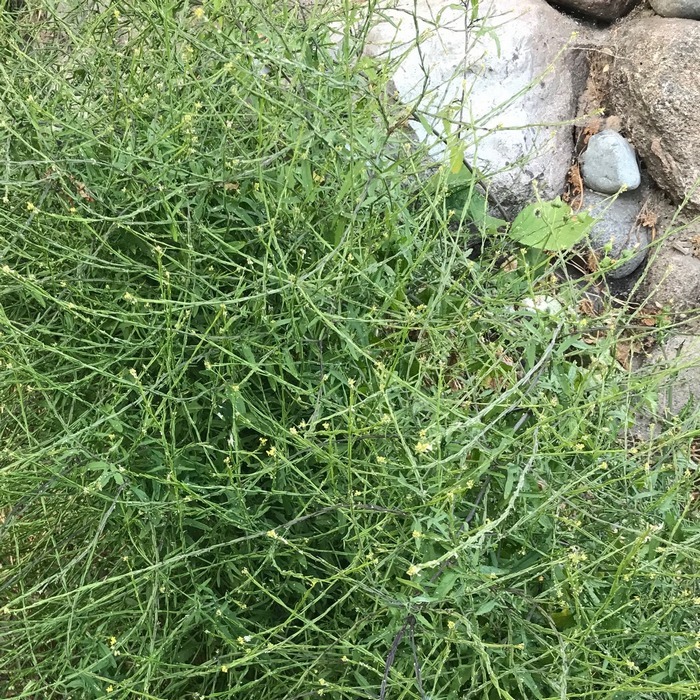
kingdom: Plantae
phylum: Tracheophyta
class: Magnoliopsida
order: Brassicales
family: Brassicaceae
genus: Sisymbrium
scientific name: Sisymbrium officinale
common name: Rank vejsennep
